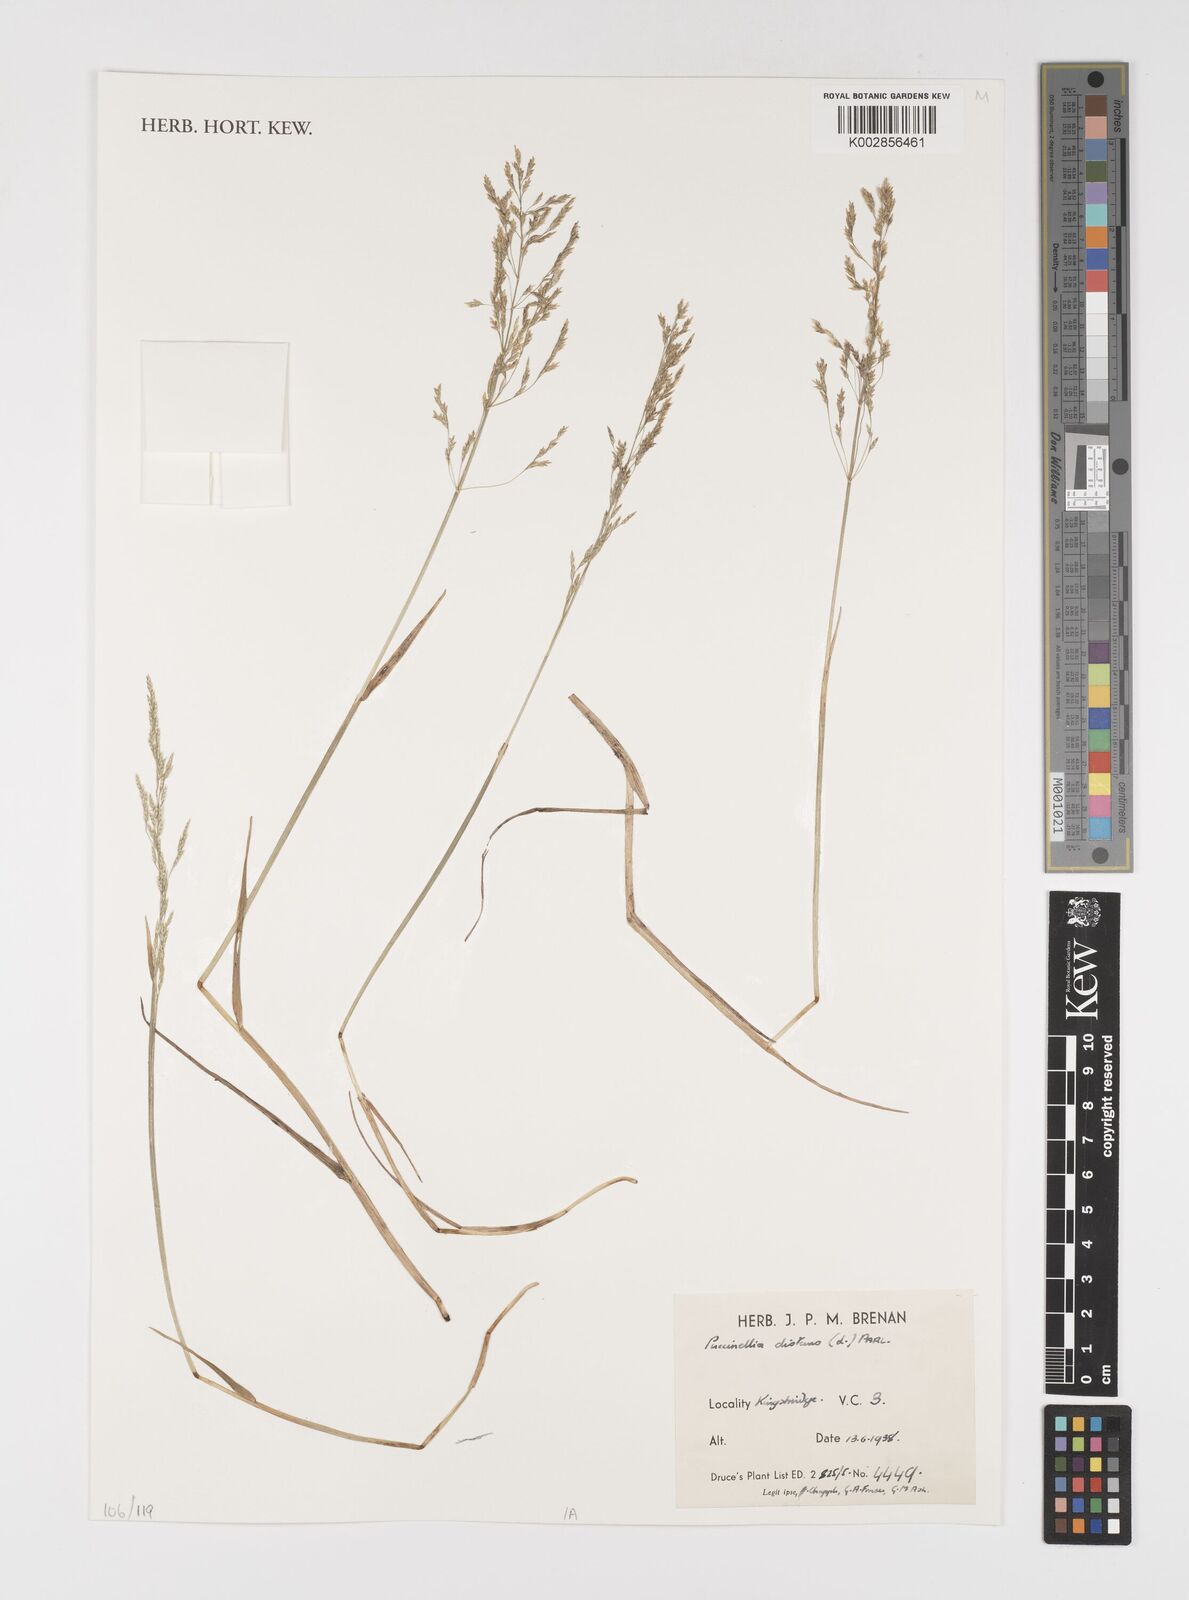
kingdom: Plantae
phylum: Tracheophyta
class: Liliopsida
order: Poales
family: Poaceae
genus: Puccinellia
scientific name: Puccinellia distans
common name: Weeping alkaligrass
